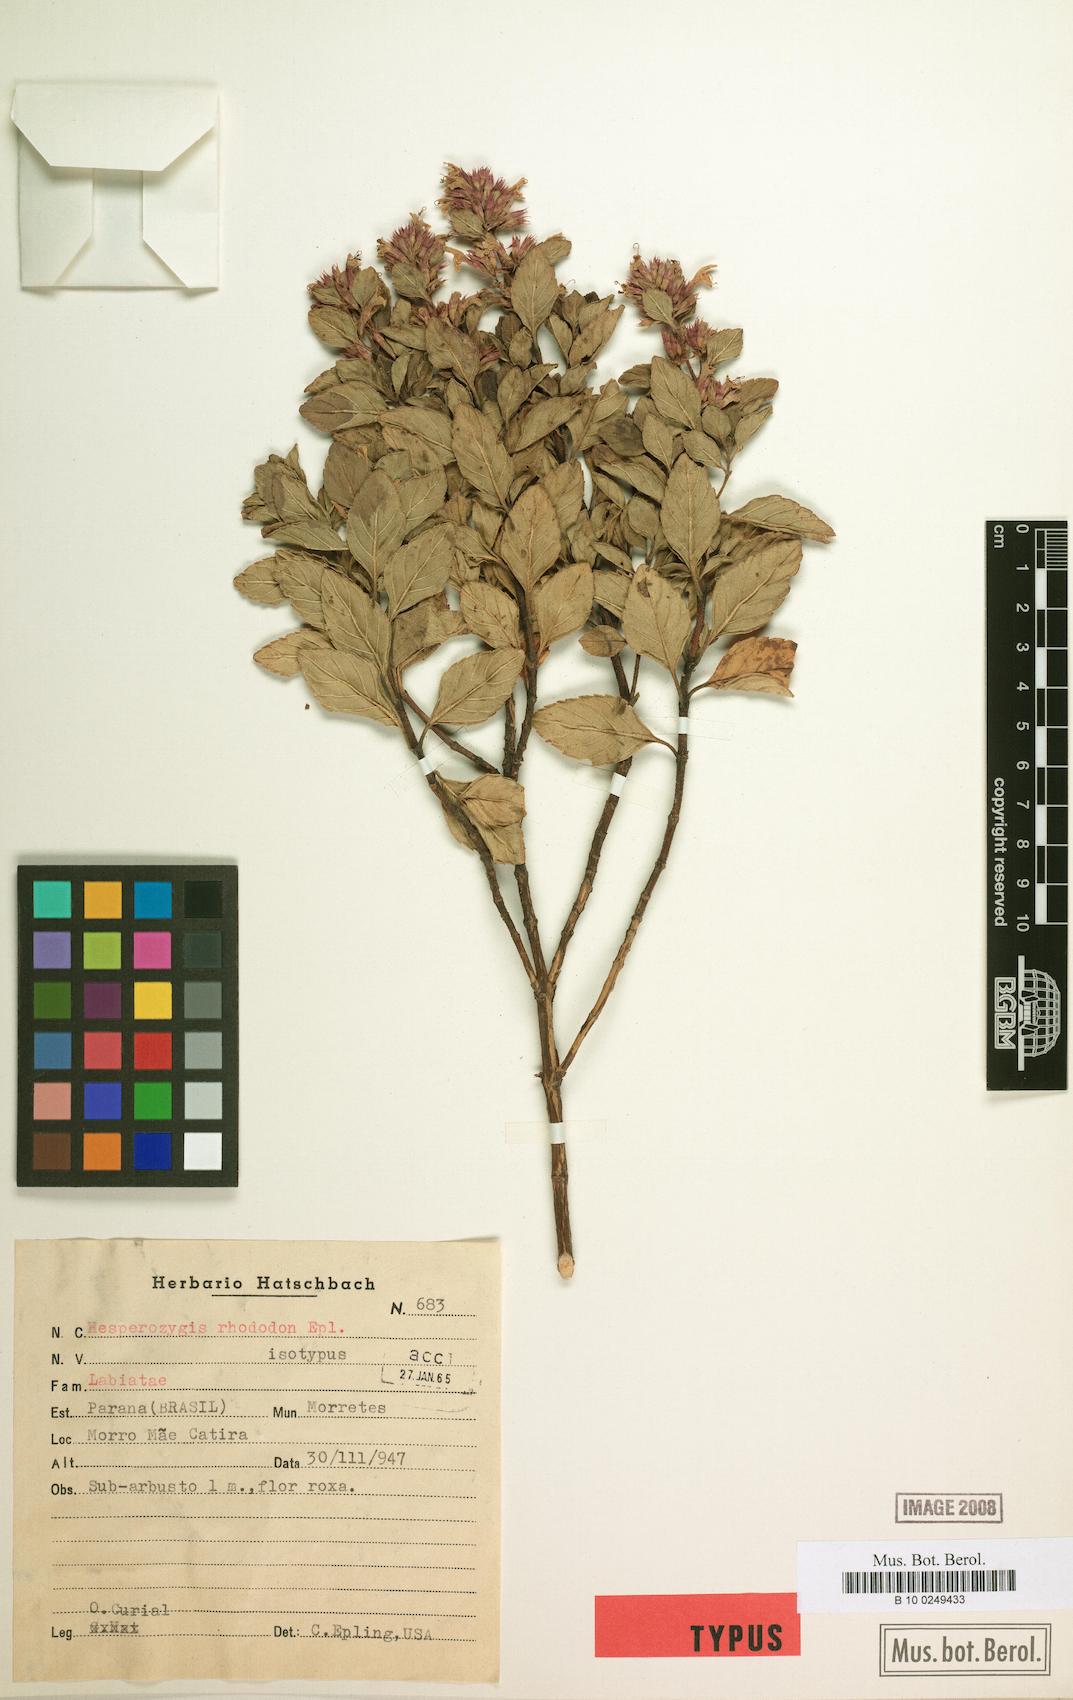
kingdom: Plantae
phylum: Tracheophyta
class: Magnoliopsida
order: Lamiales
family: Lamiaceae
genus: Hesperozygis
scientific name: Hesperozygis rhododon
